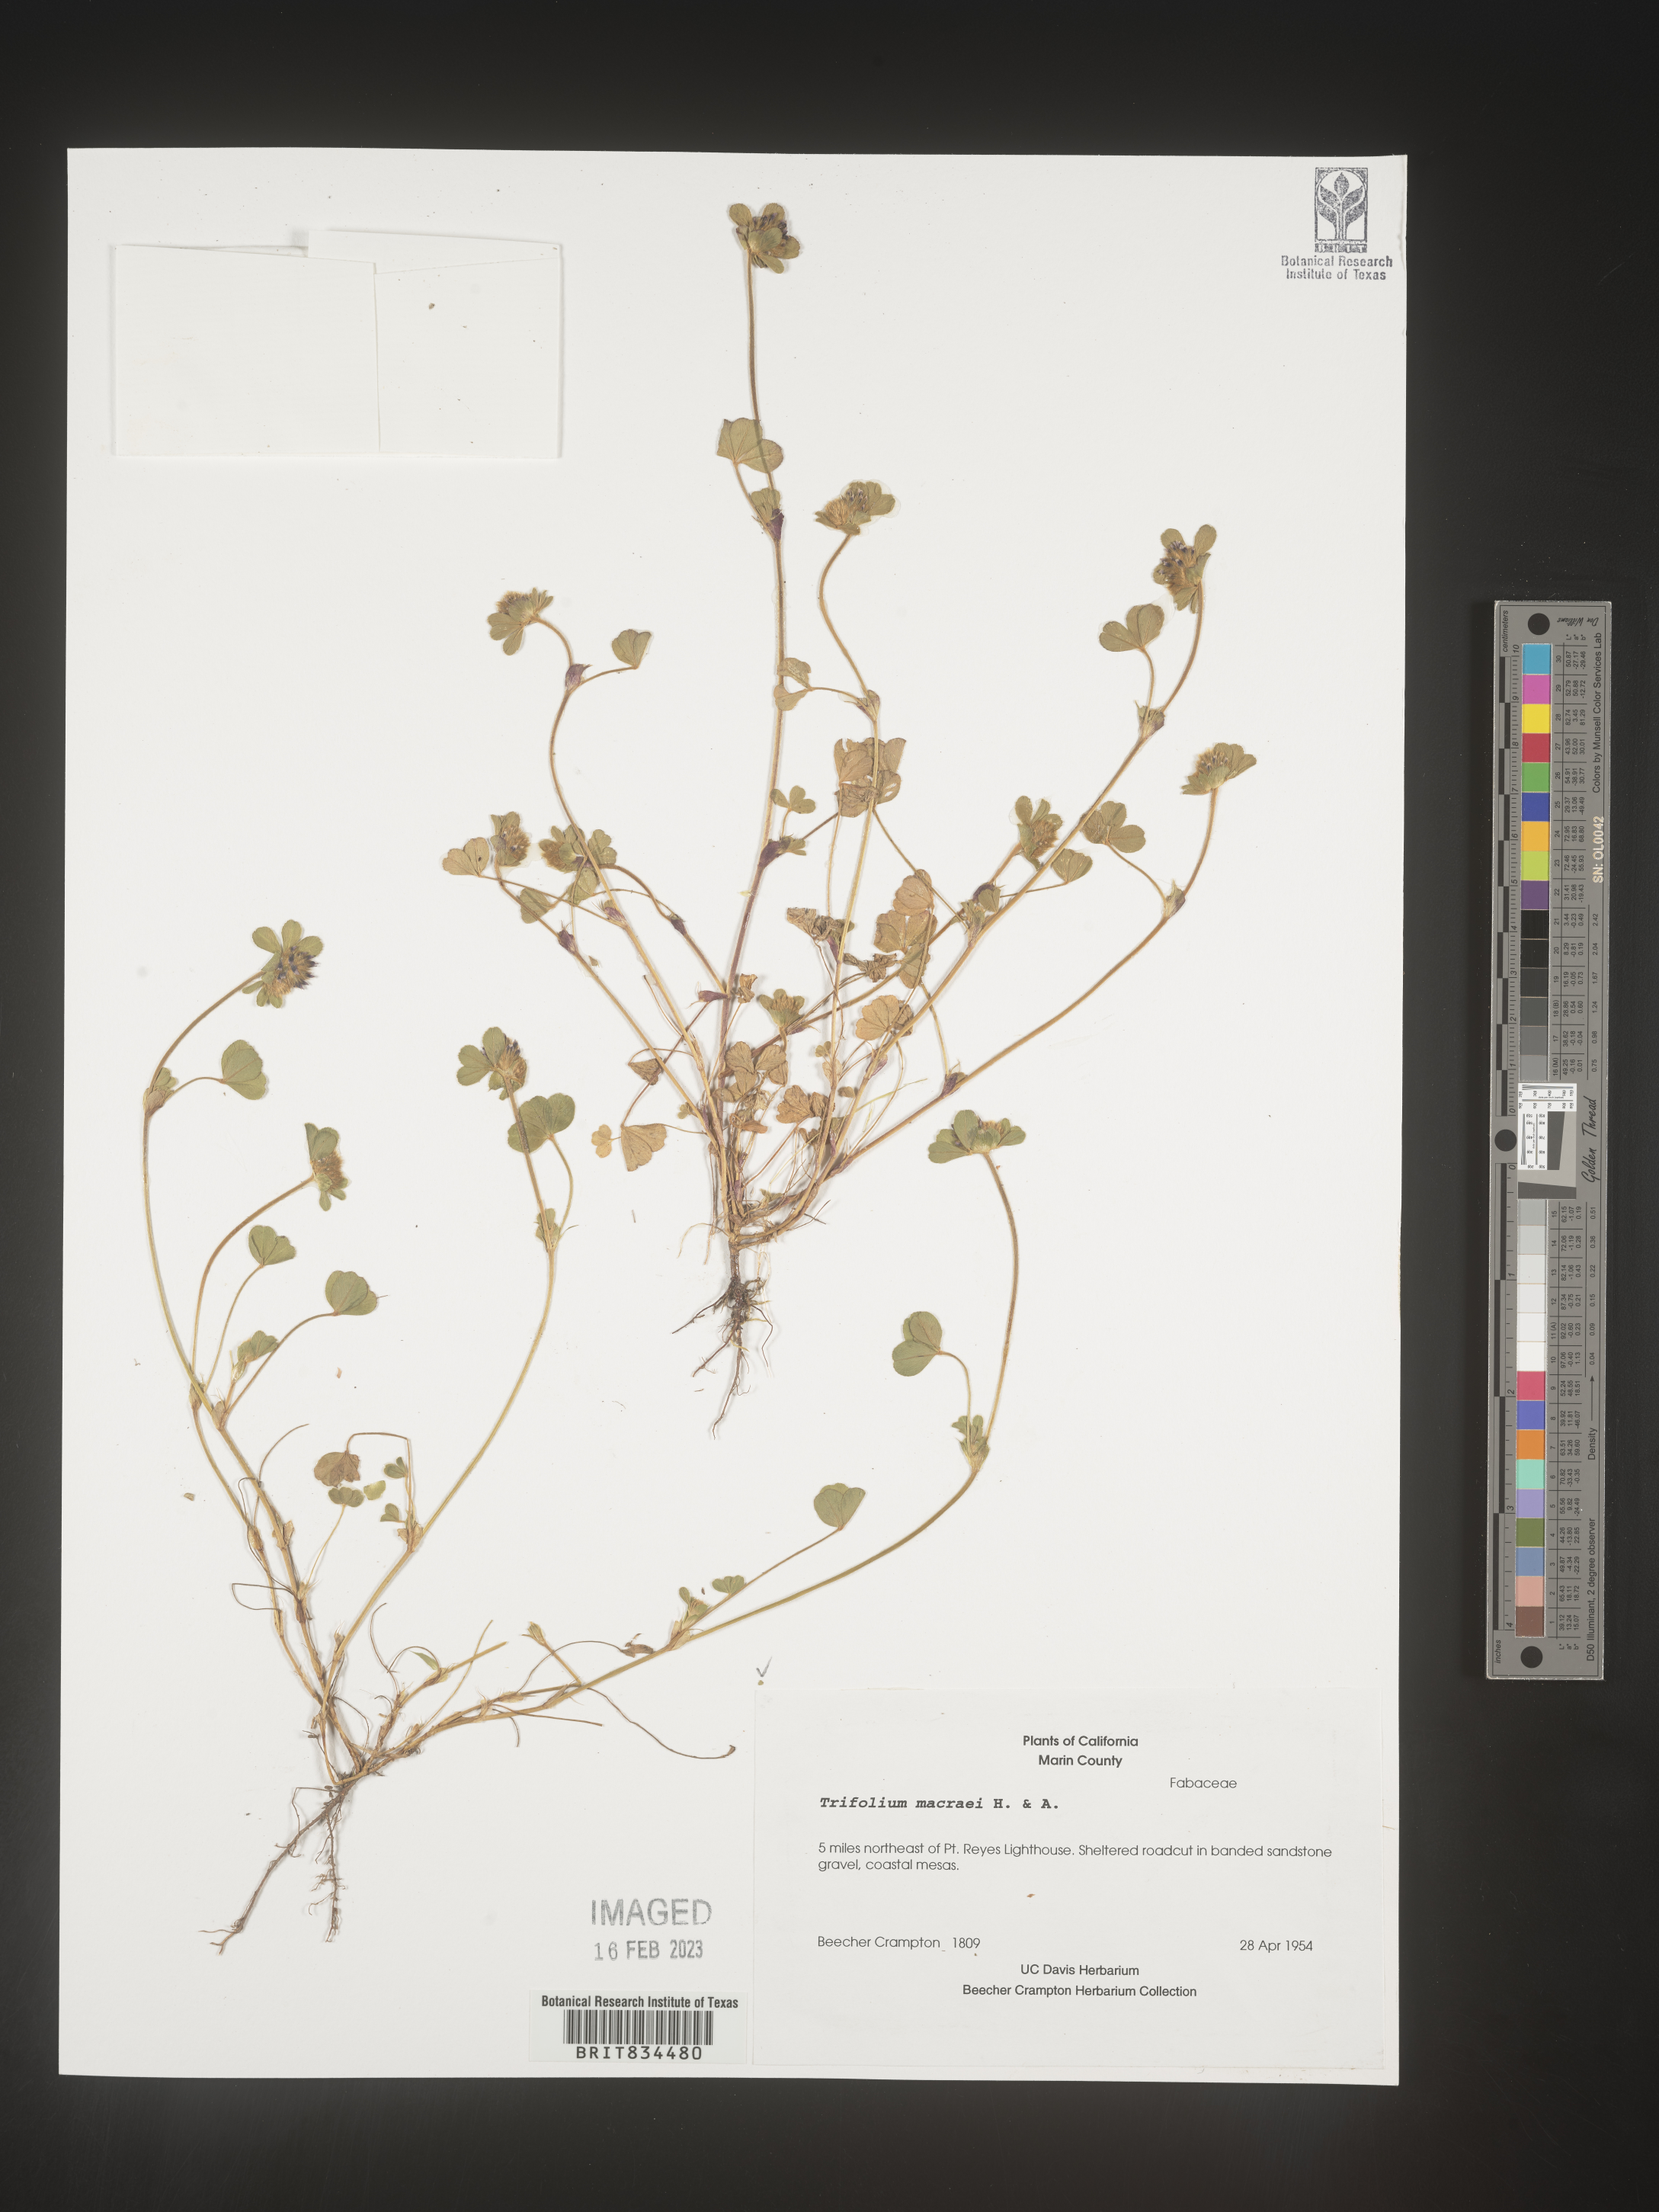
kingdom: Plantae
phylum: Tracheophyta
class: Magnoliopsida
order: Fabales
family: Fabaceae
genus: Trifolium
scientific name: Trifolium
